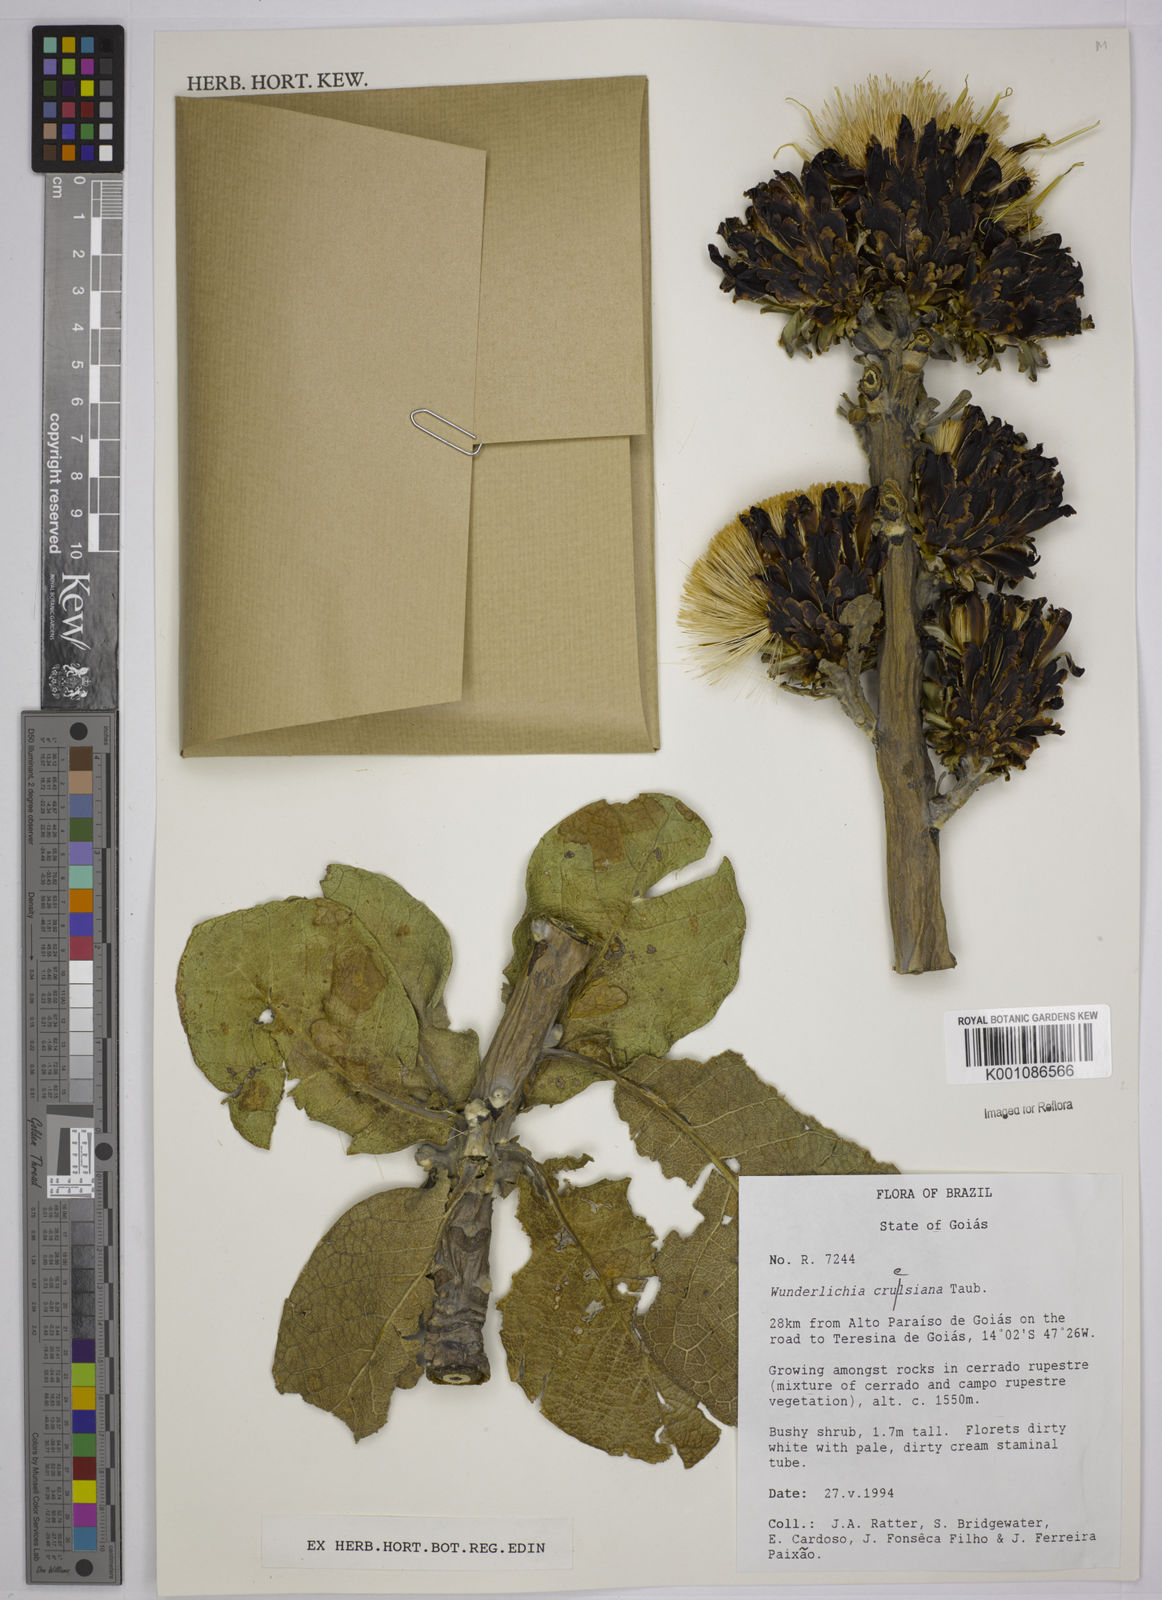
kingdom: Plantae
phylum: Tracheophyta
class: Magnoliopsida
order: Asterales
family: Asteraceae
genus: Wunderlichia
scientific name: Wunderlichia
